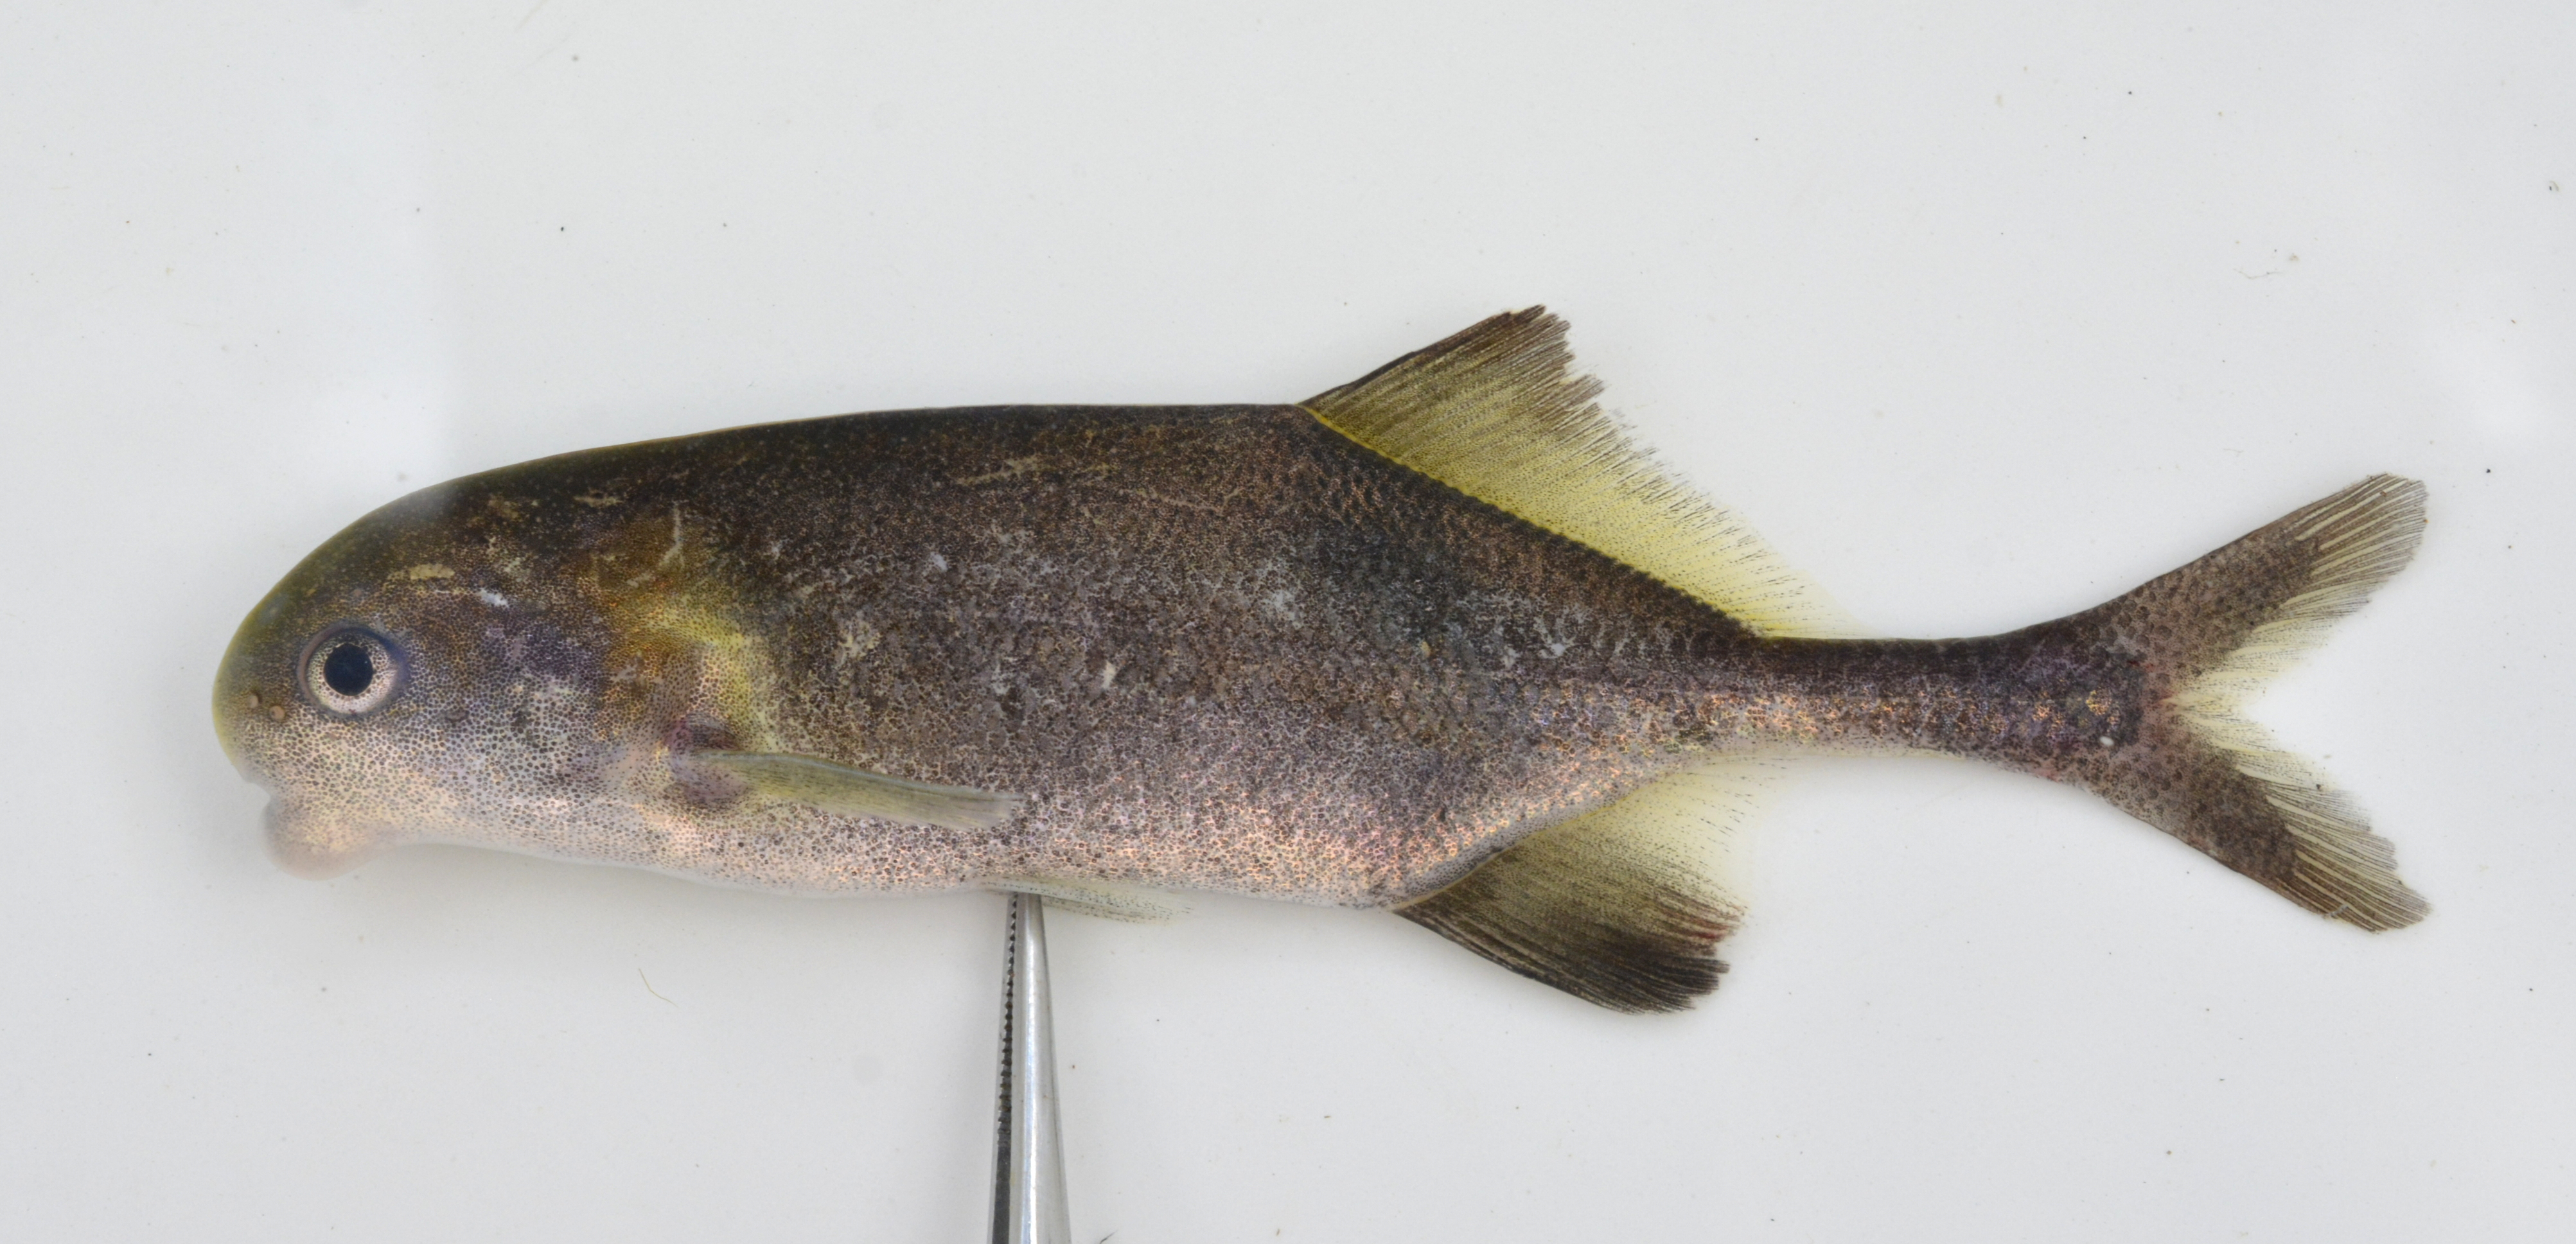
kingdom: Animalia
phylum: Chordata
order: Osteoglossiformes
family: Mormyridae
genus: Cyphomyrus
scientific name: Cyphomyrus discorhynchus
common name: Zambezi parrotfish
